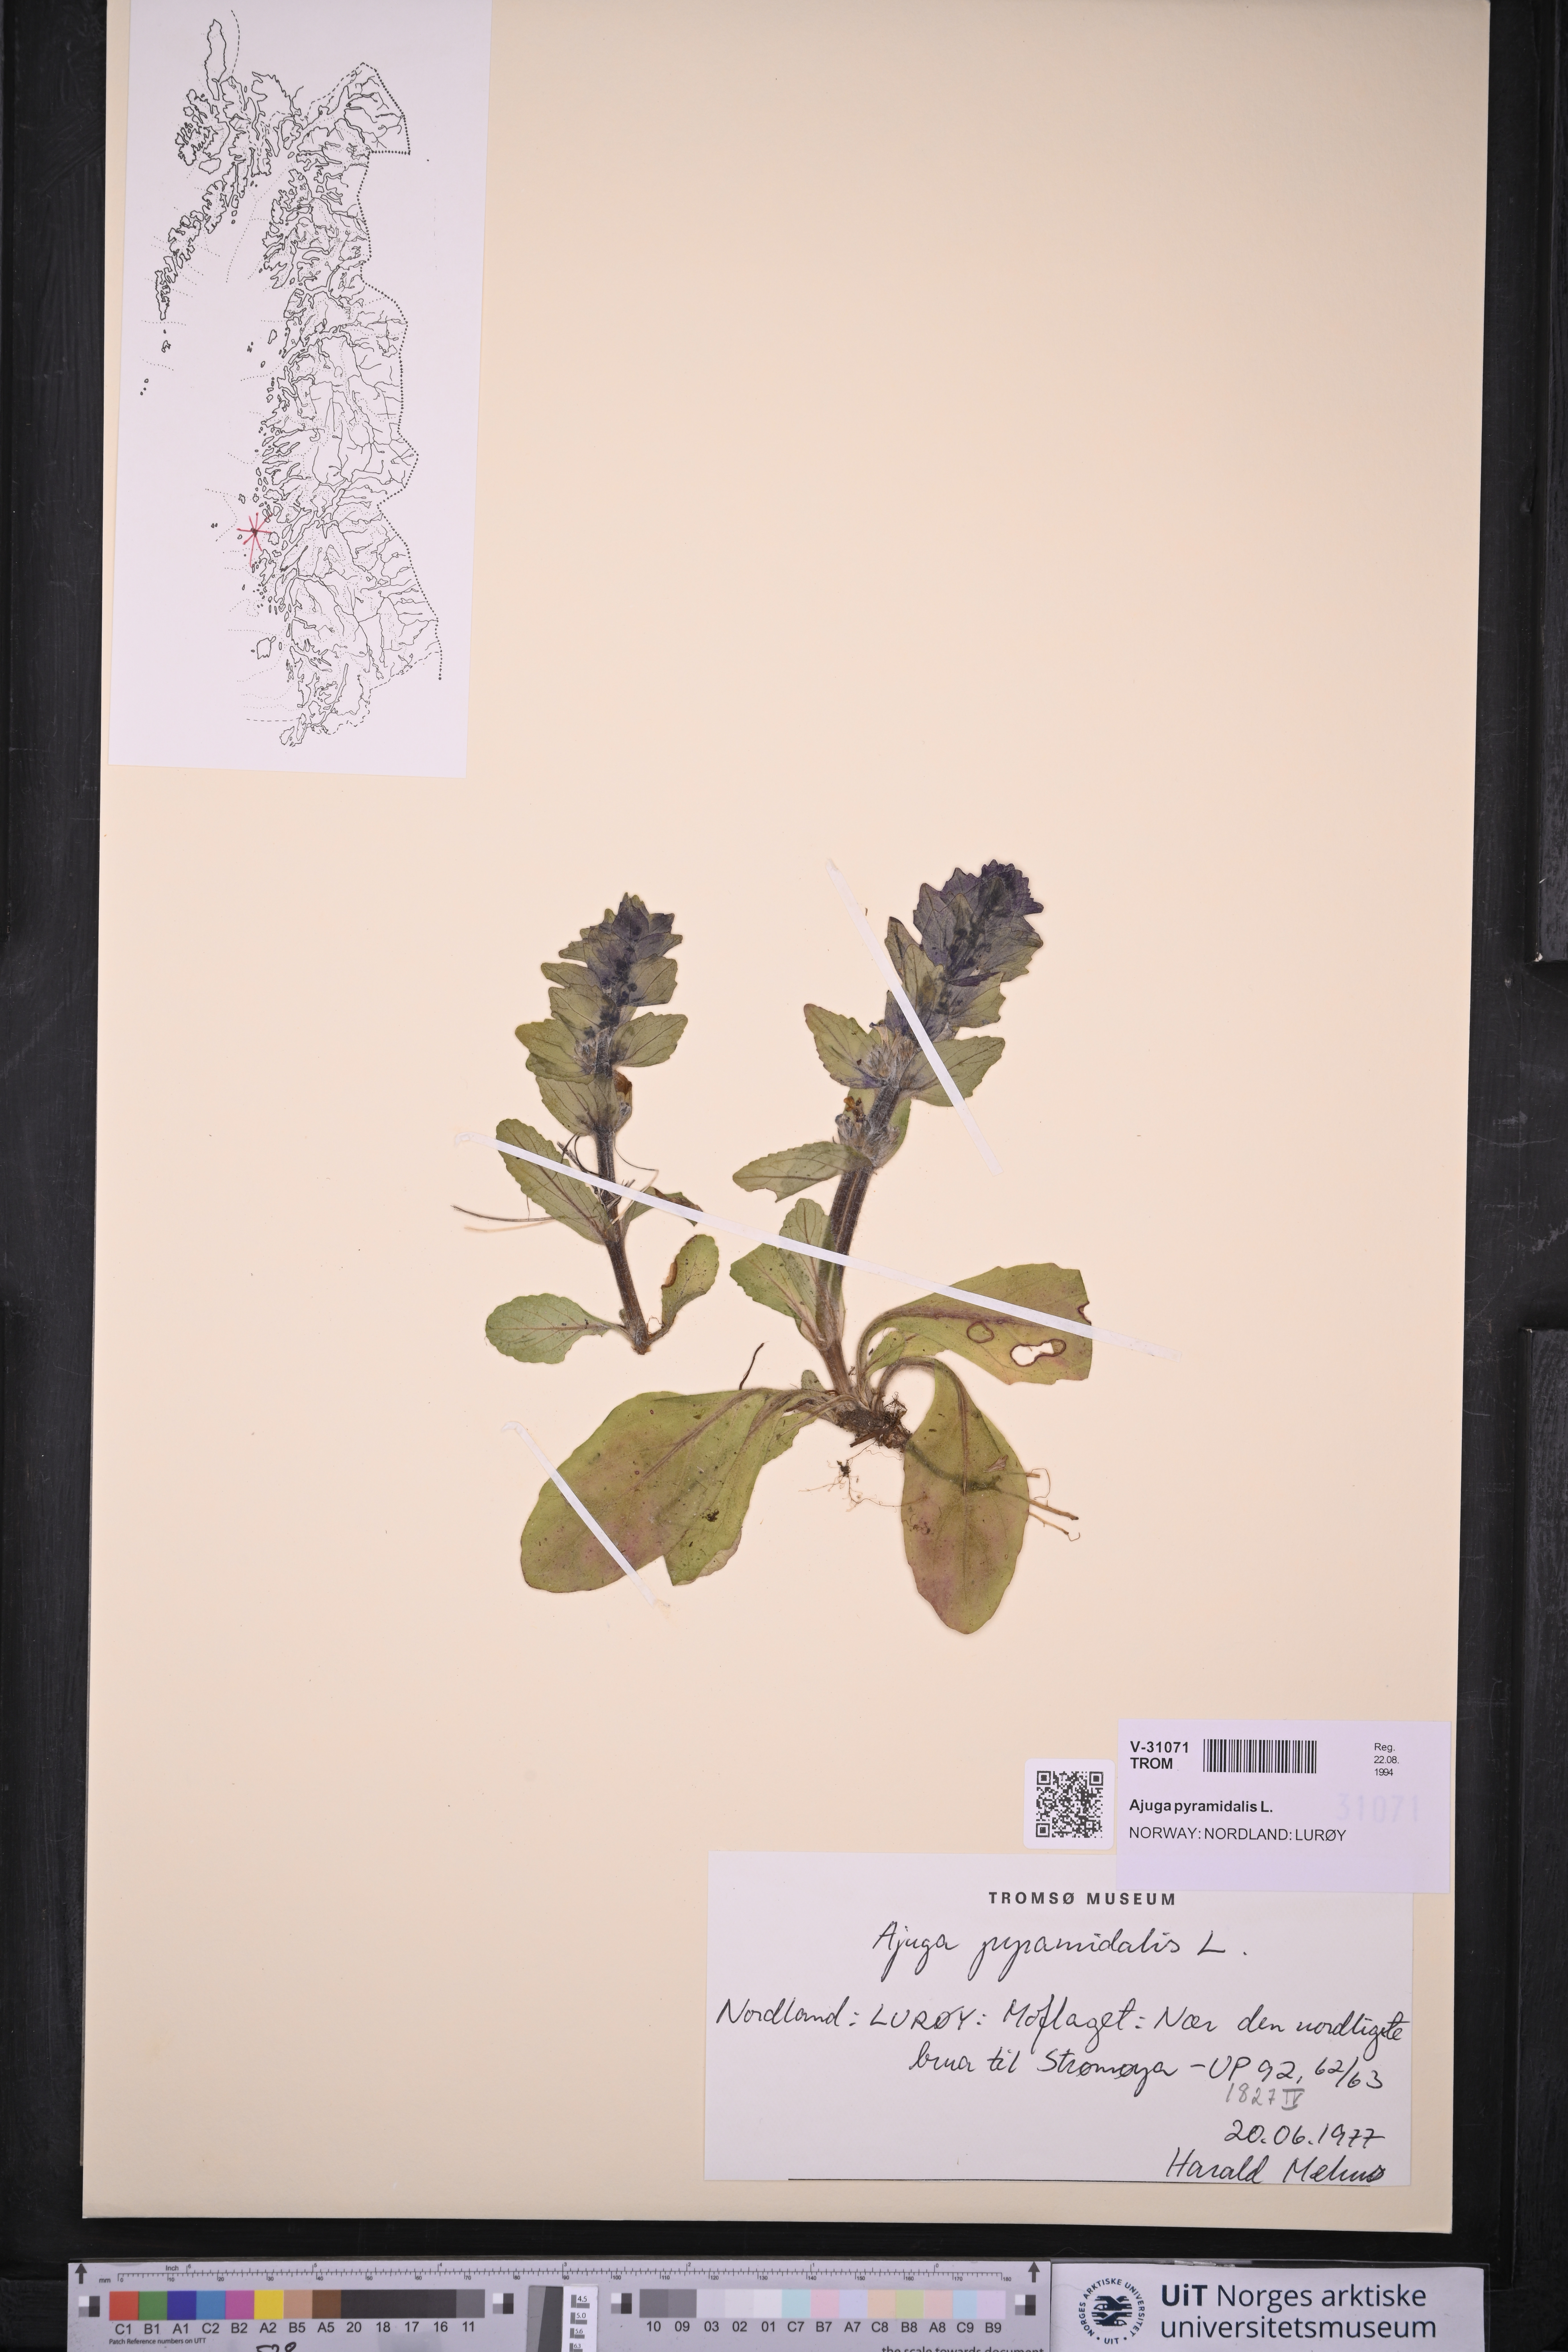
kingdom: Plantae
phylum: Tracheophyta
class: Magnoliopsida
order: Lamiales
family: Lamiaceae
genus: Ajuga
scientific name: Ajuga pyramidalis
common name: Pyramid bugle
